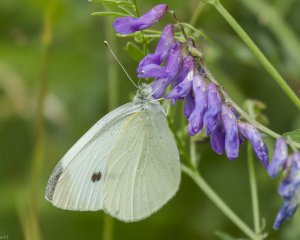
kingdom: Animalia
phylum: Arthropoda
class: Insecta
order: Lepidoptera
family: Pieridae
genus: Pieris
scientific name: Pieris rapae
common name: Cabbage White
